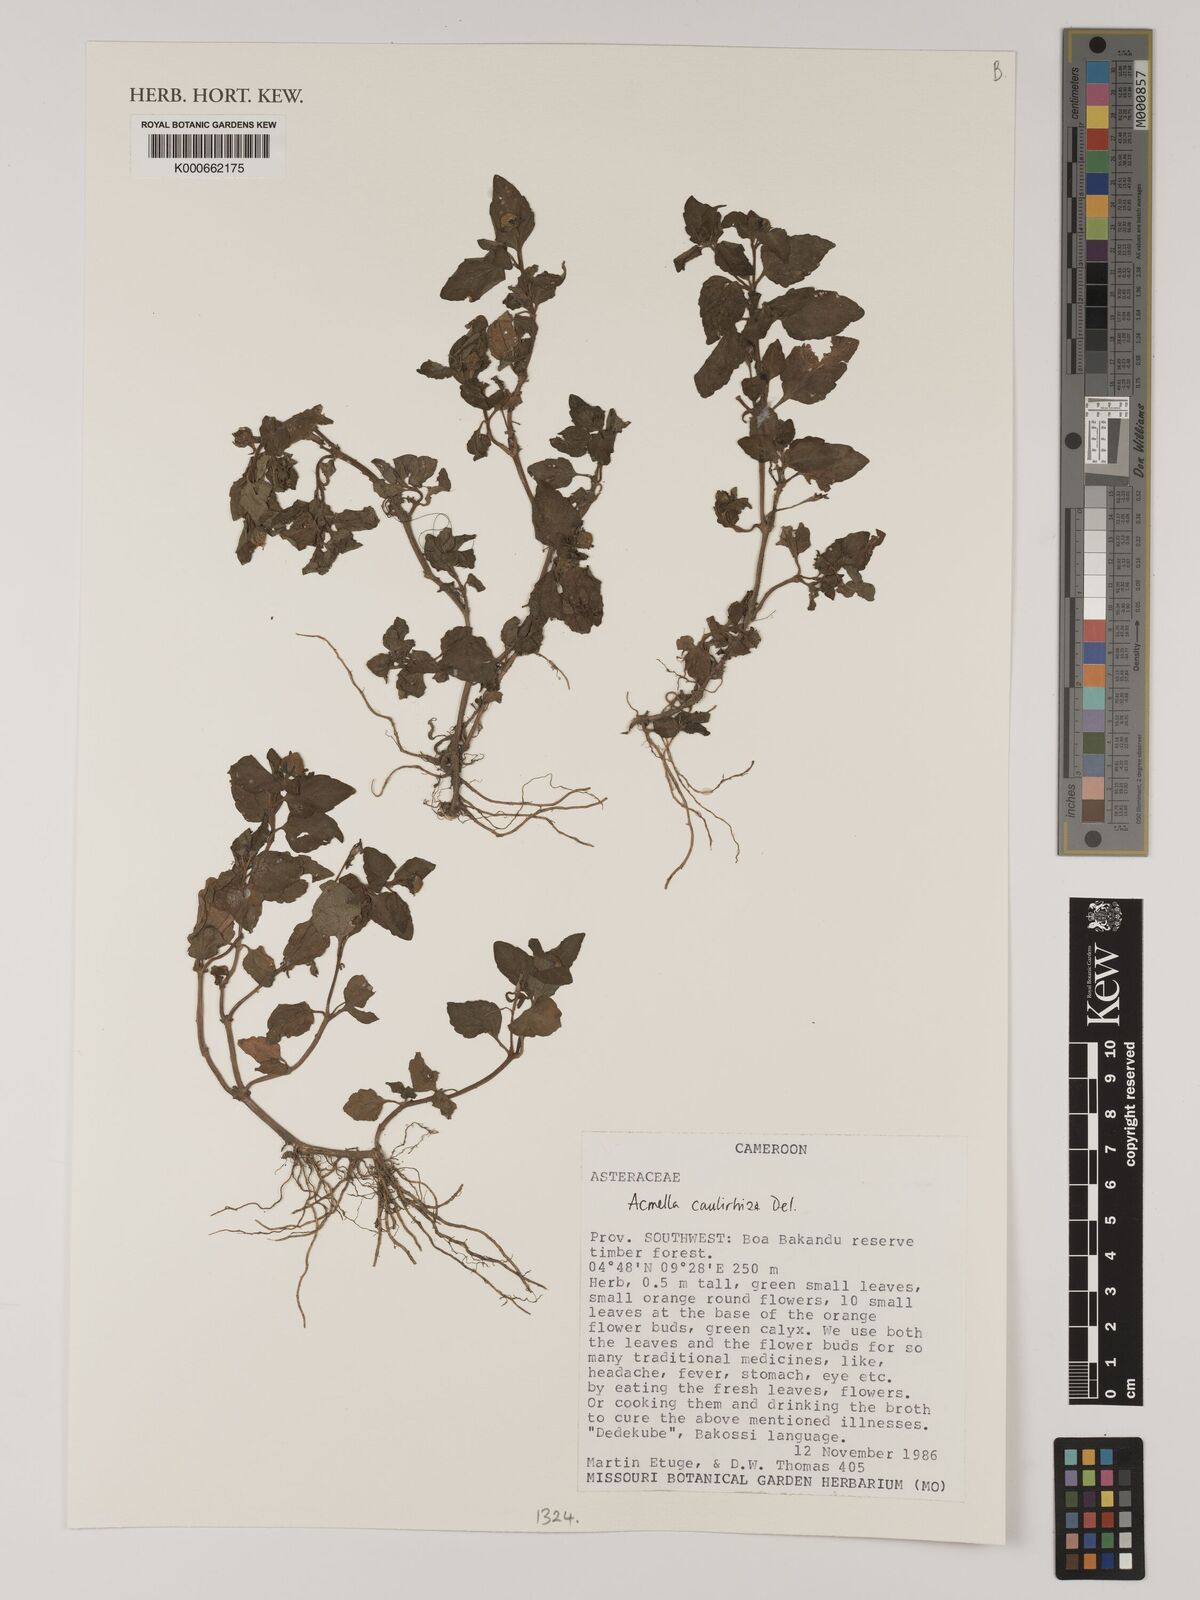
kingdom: Plantae
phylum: Tracheophyta
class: Magnoliopsida
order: Asterales
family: Asteraceae
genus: Acmella
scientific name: Acmella caulirhiza
